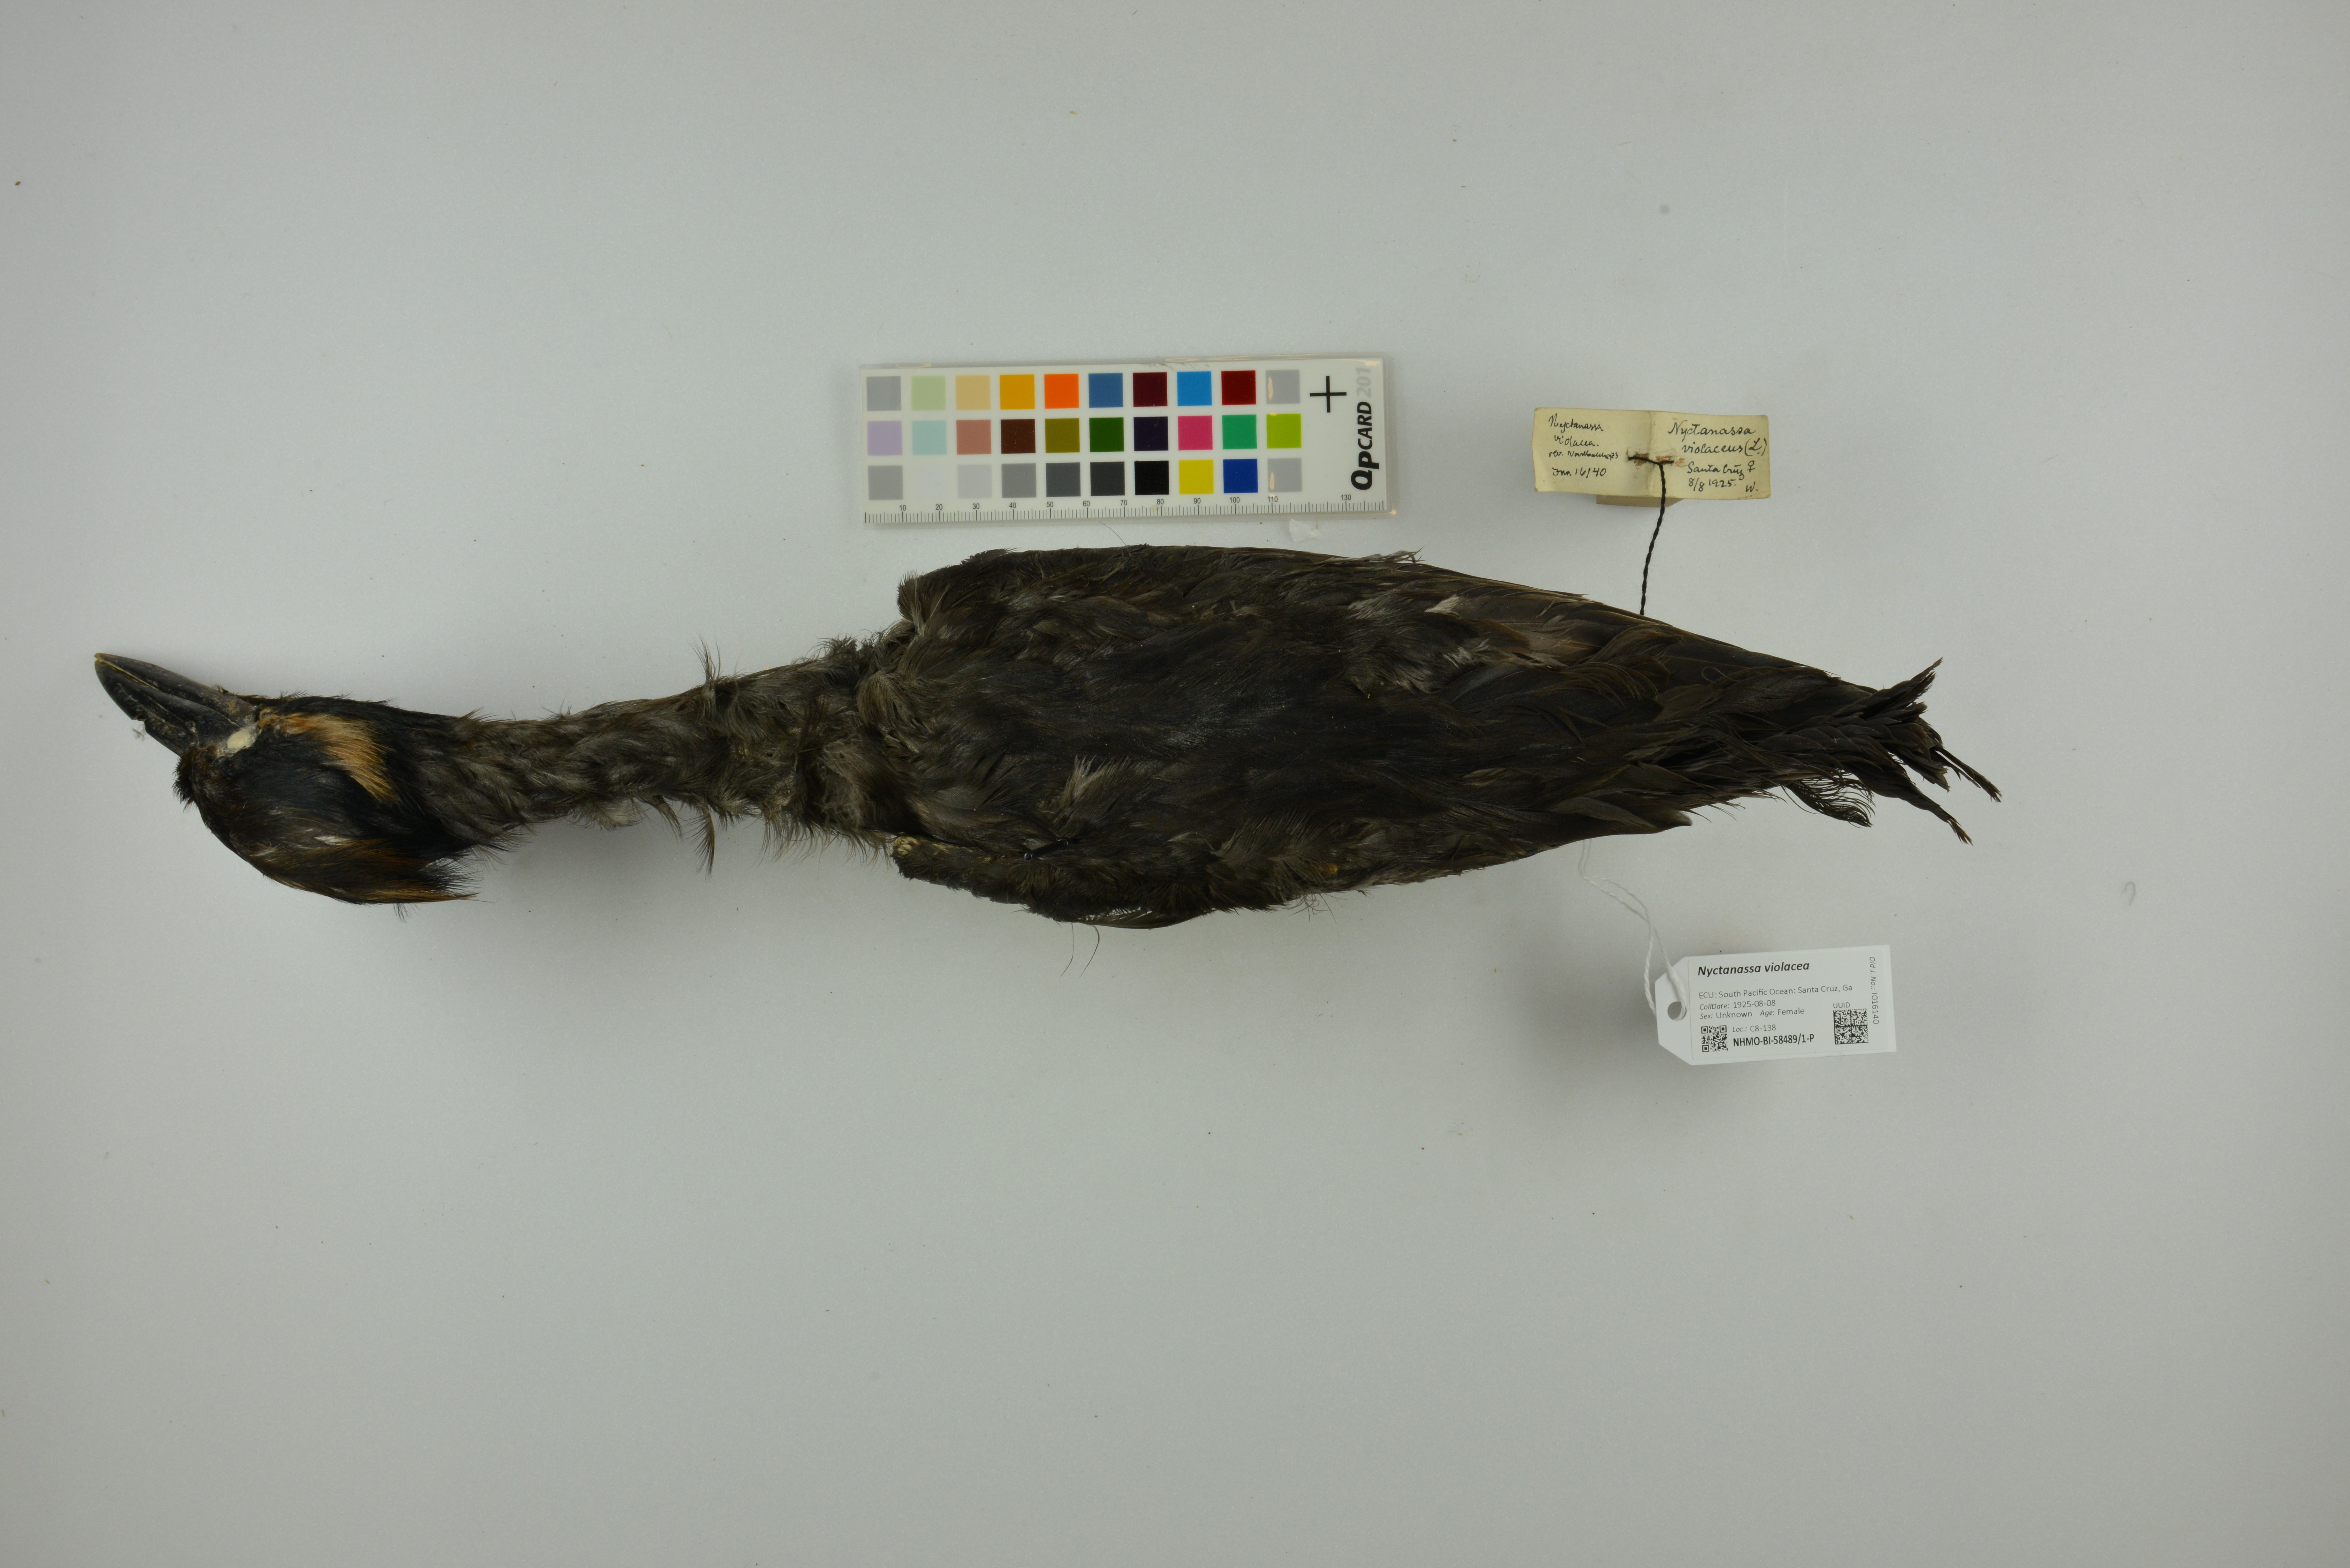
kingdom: Animalia
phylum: Chordata
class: Aves
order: Pelecaniformes
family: Ardeidae
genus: Nyctanassa
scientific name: Nyctanassa violacea
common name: Yellow-crowned night heron
